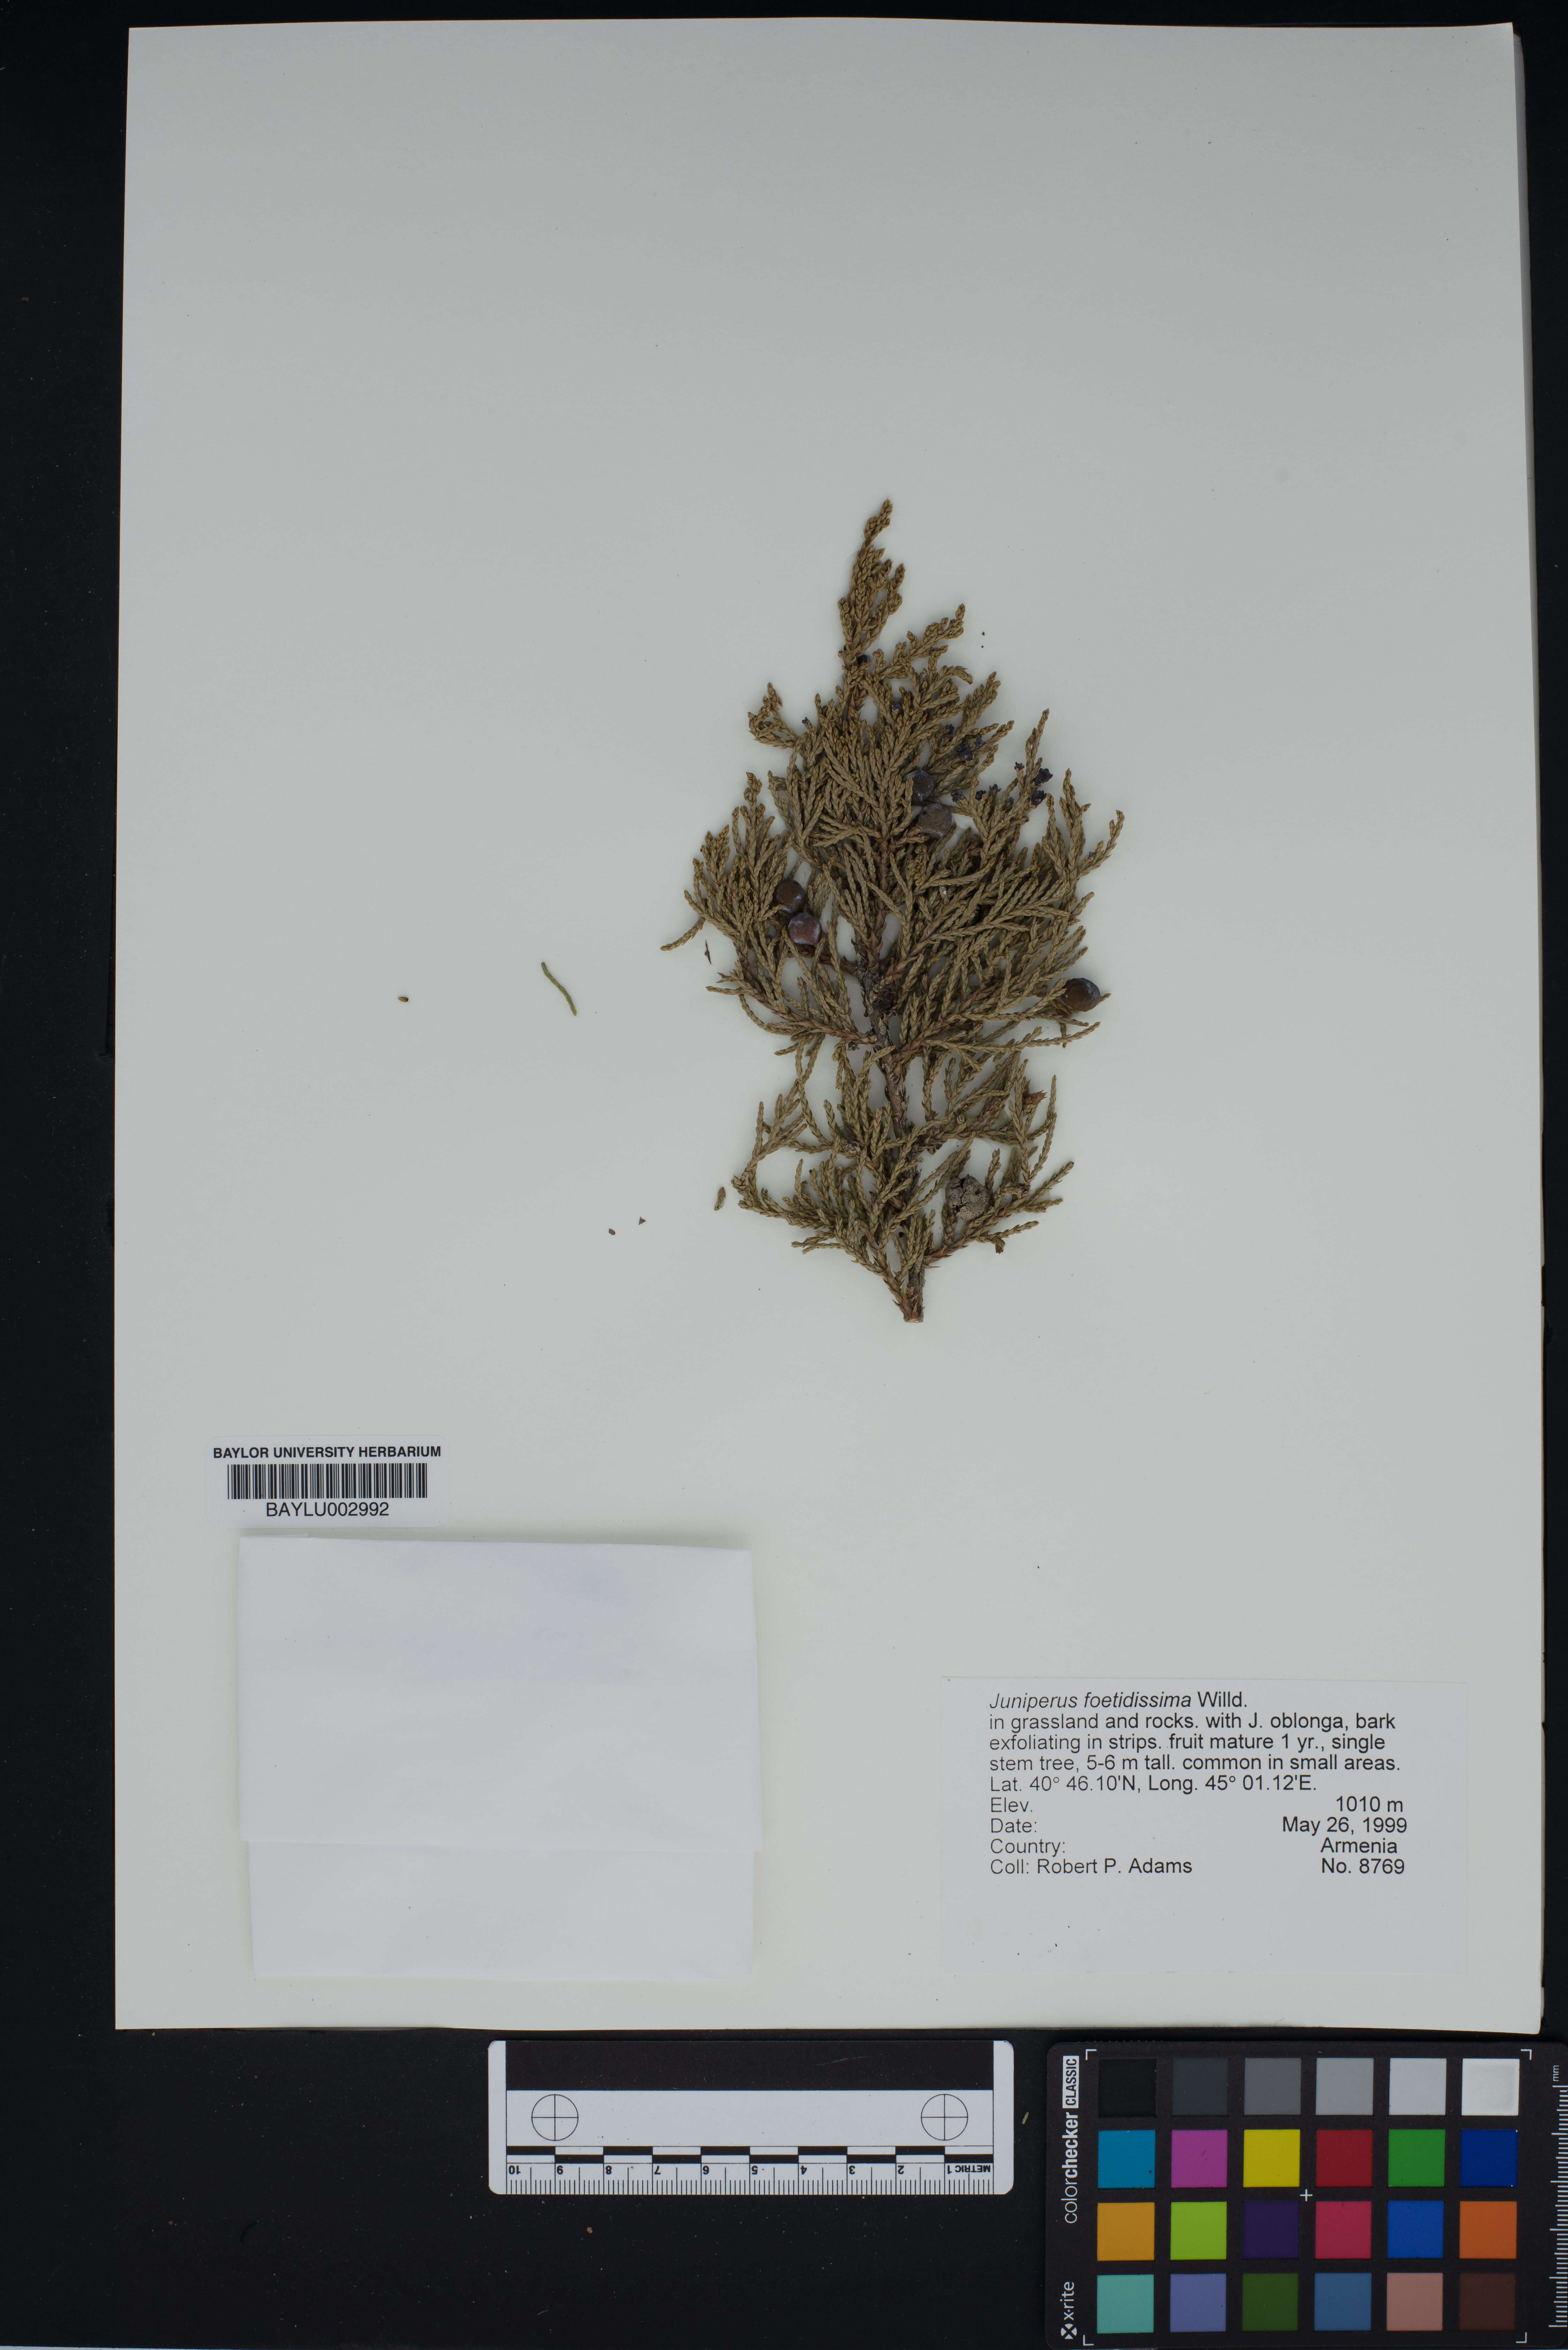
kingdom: Plantae
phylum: Tracheophyta
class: Pinopsida
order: Pinales
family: Cupressaceae
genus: Juniperus
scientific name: Juniperus foetidissima
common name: Stinking juniper
